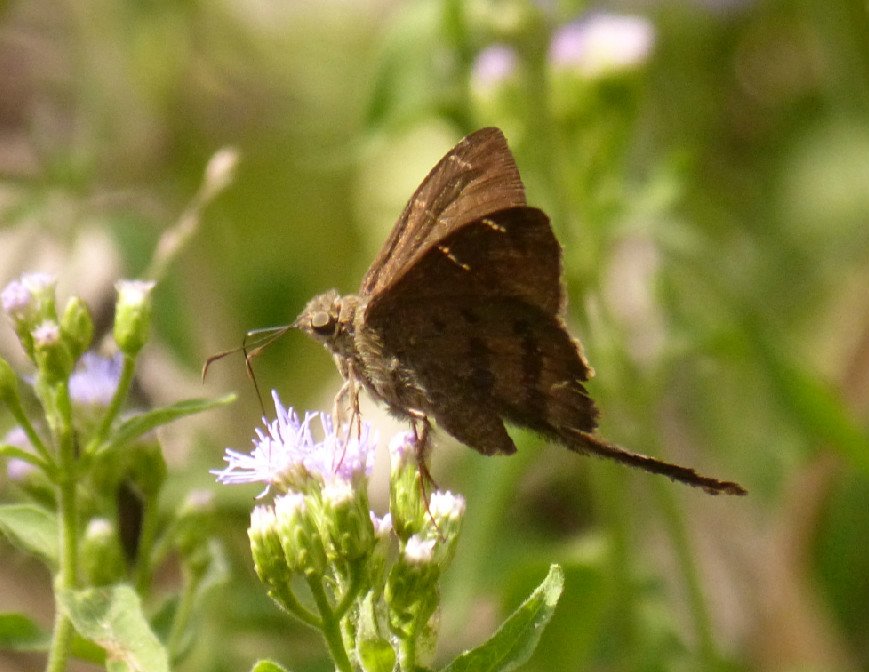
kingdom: Animalia
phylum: Arthropoda
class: Insecta
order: Lepidoptera
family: Hesperiidae
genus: Urbanus
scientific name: Urbanus procne
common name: Brown Longtail
